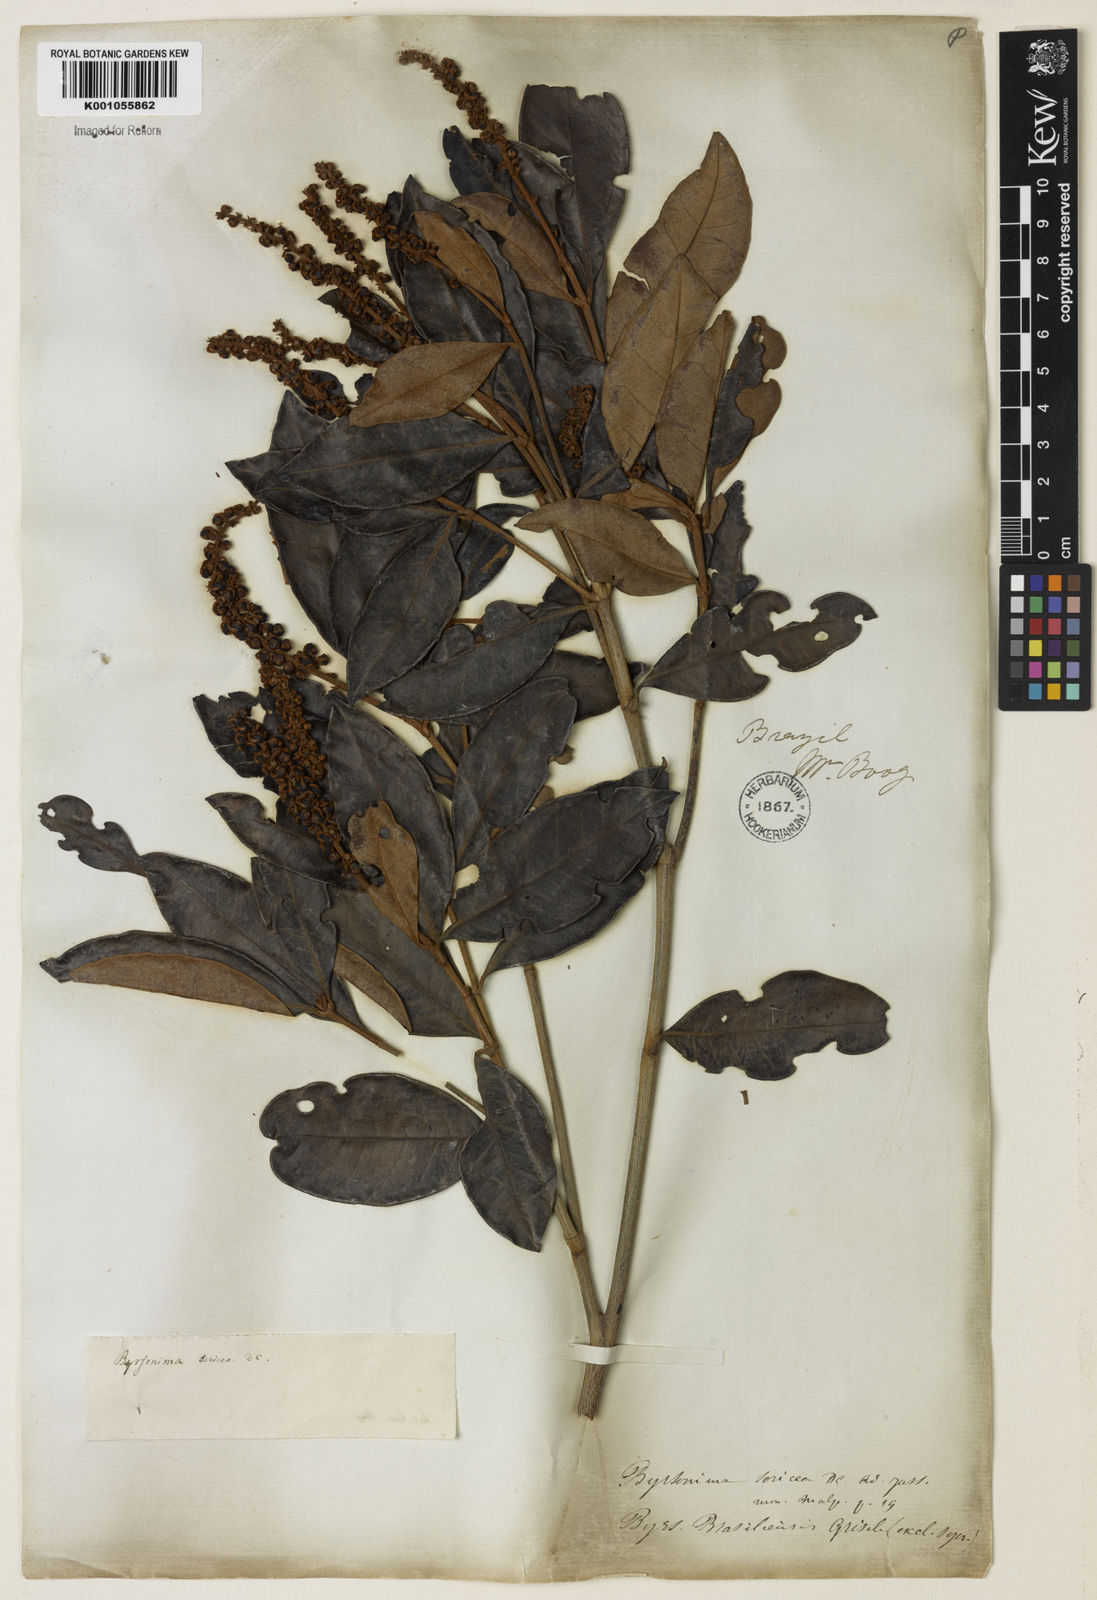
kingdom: Plantae
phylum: Tracheophyta
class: Magnoliopsida
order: Malpighiales
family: Malpighiaceae
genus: Byrsonima
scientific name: Byrsonima sericea
